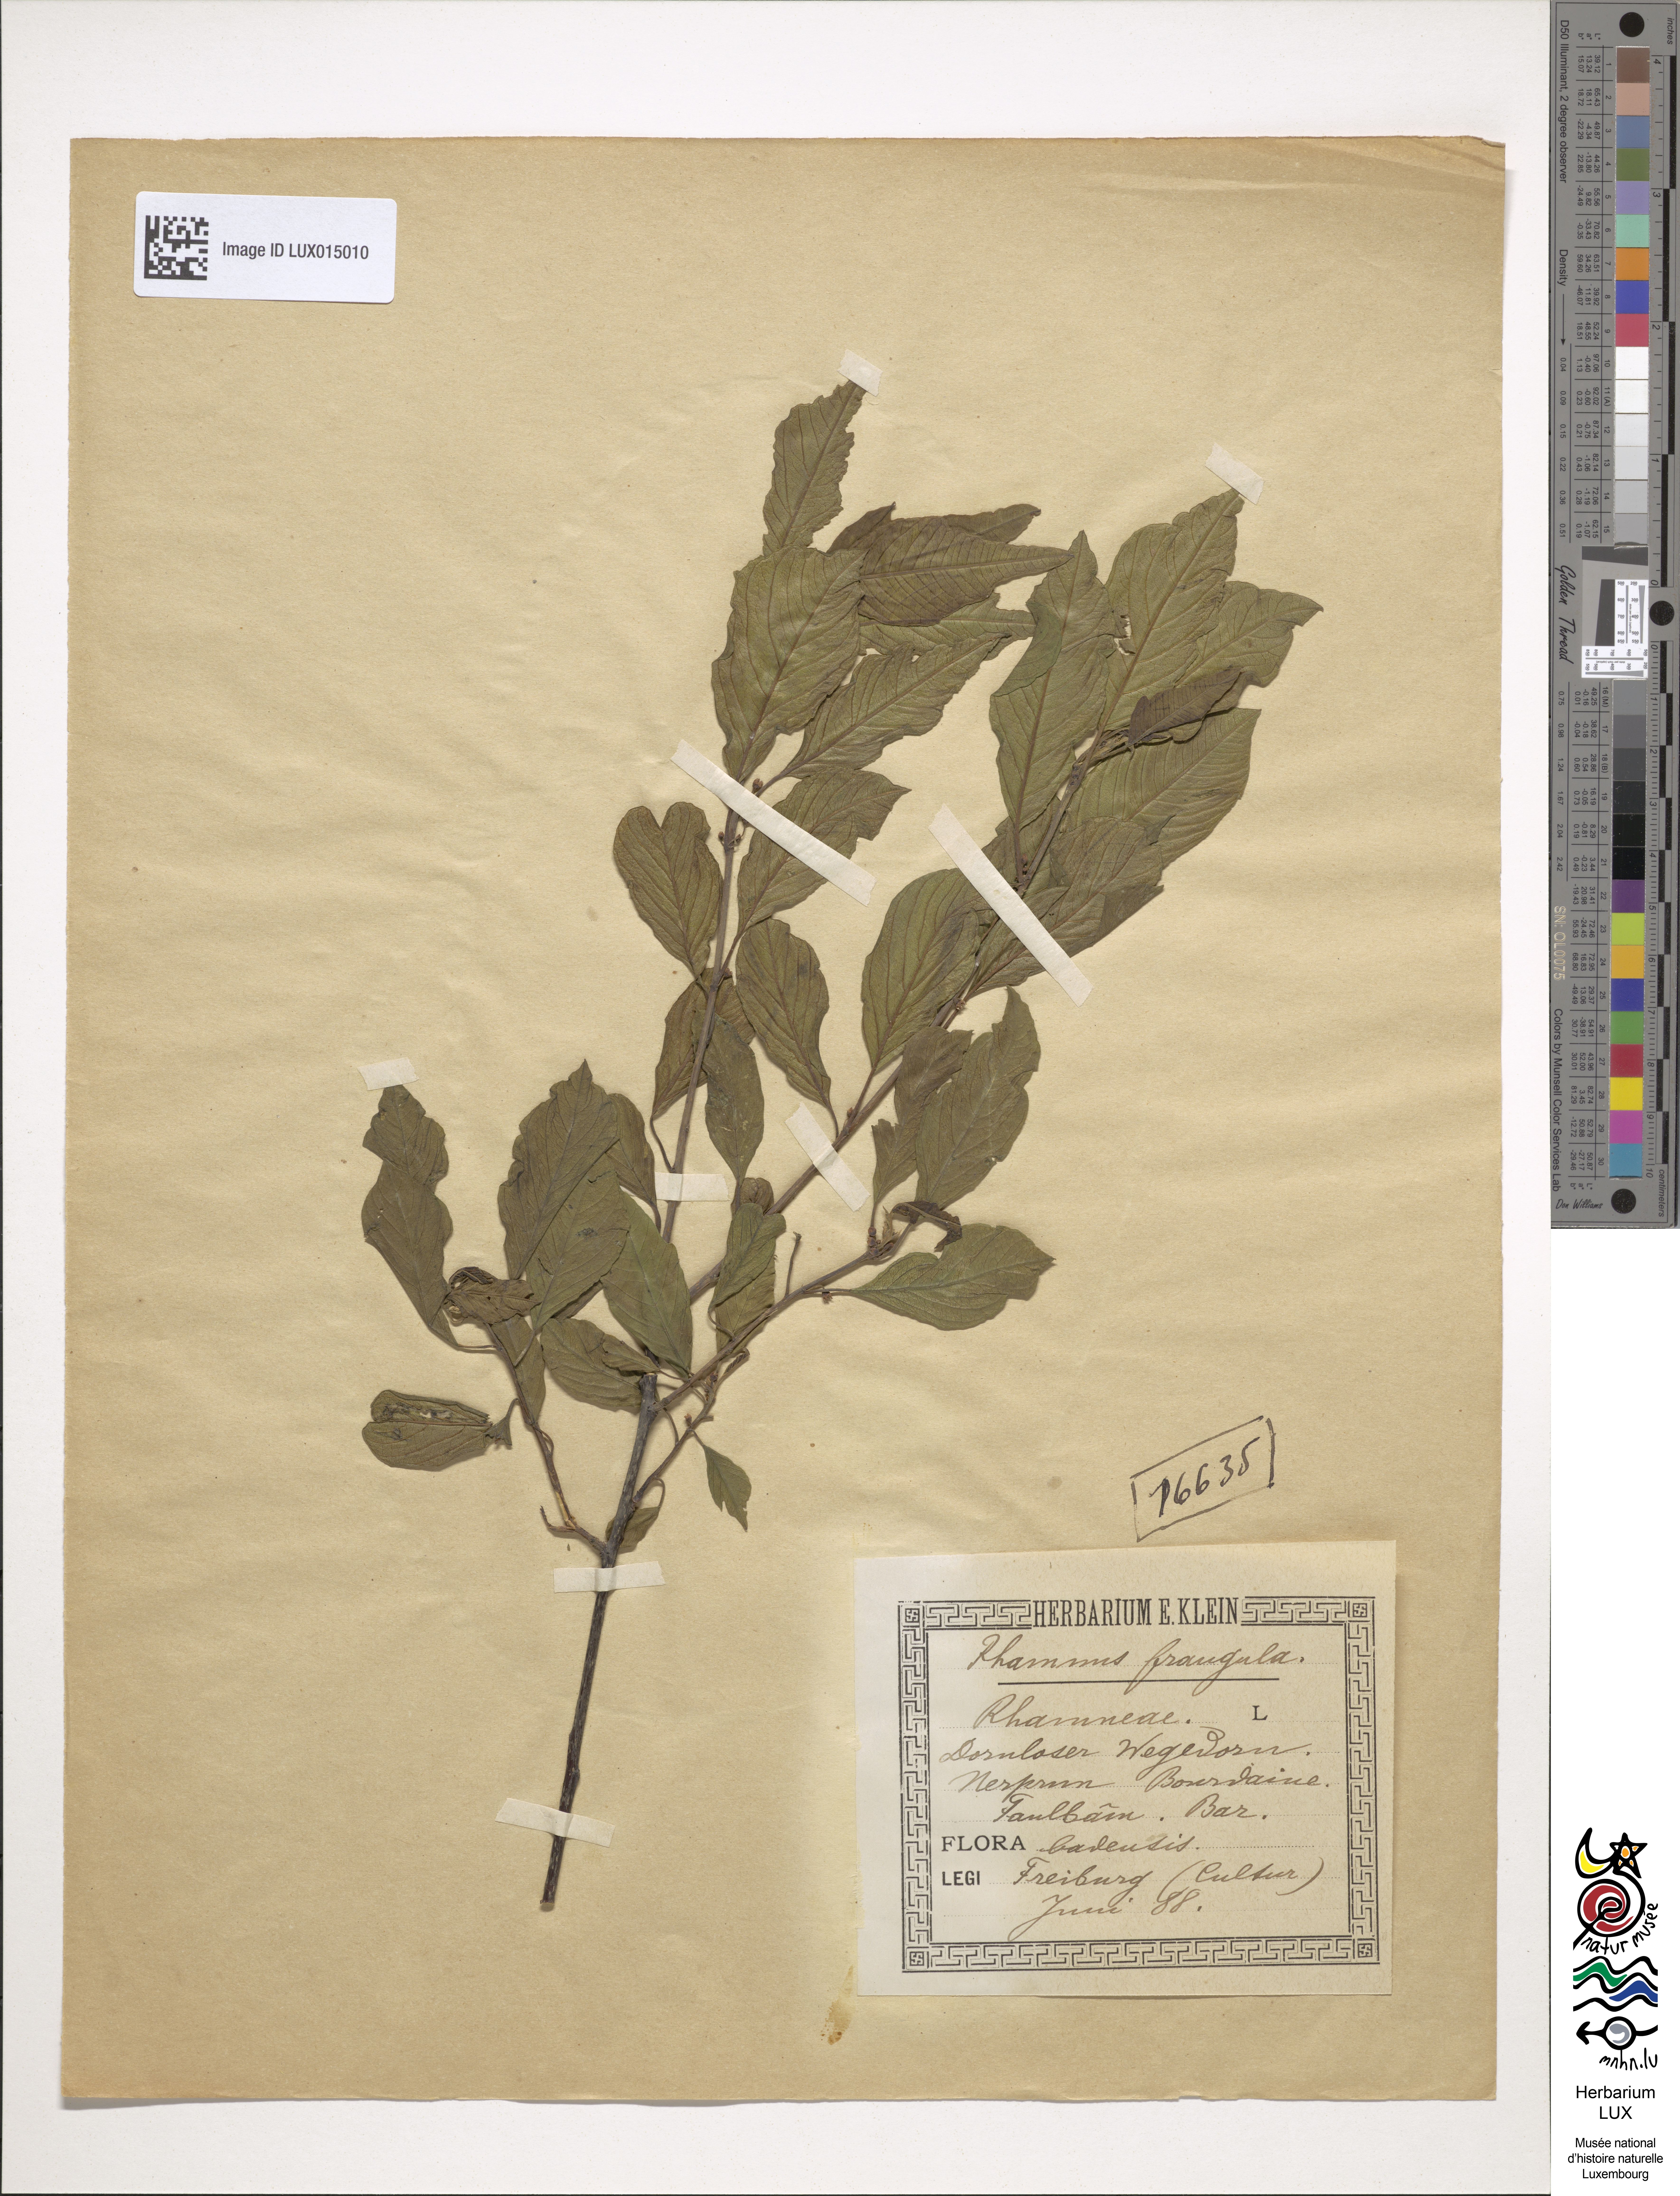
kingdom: Plantae
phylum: Tracheophyta
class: Magnoliopsida
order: Rosales
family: Rhamnaceae
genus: Frangula
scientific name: Frangula alnus
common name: Alder buckthorn
